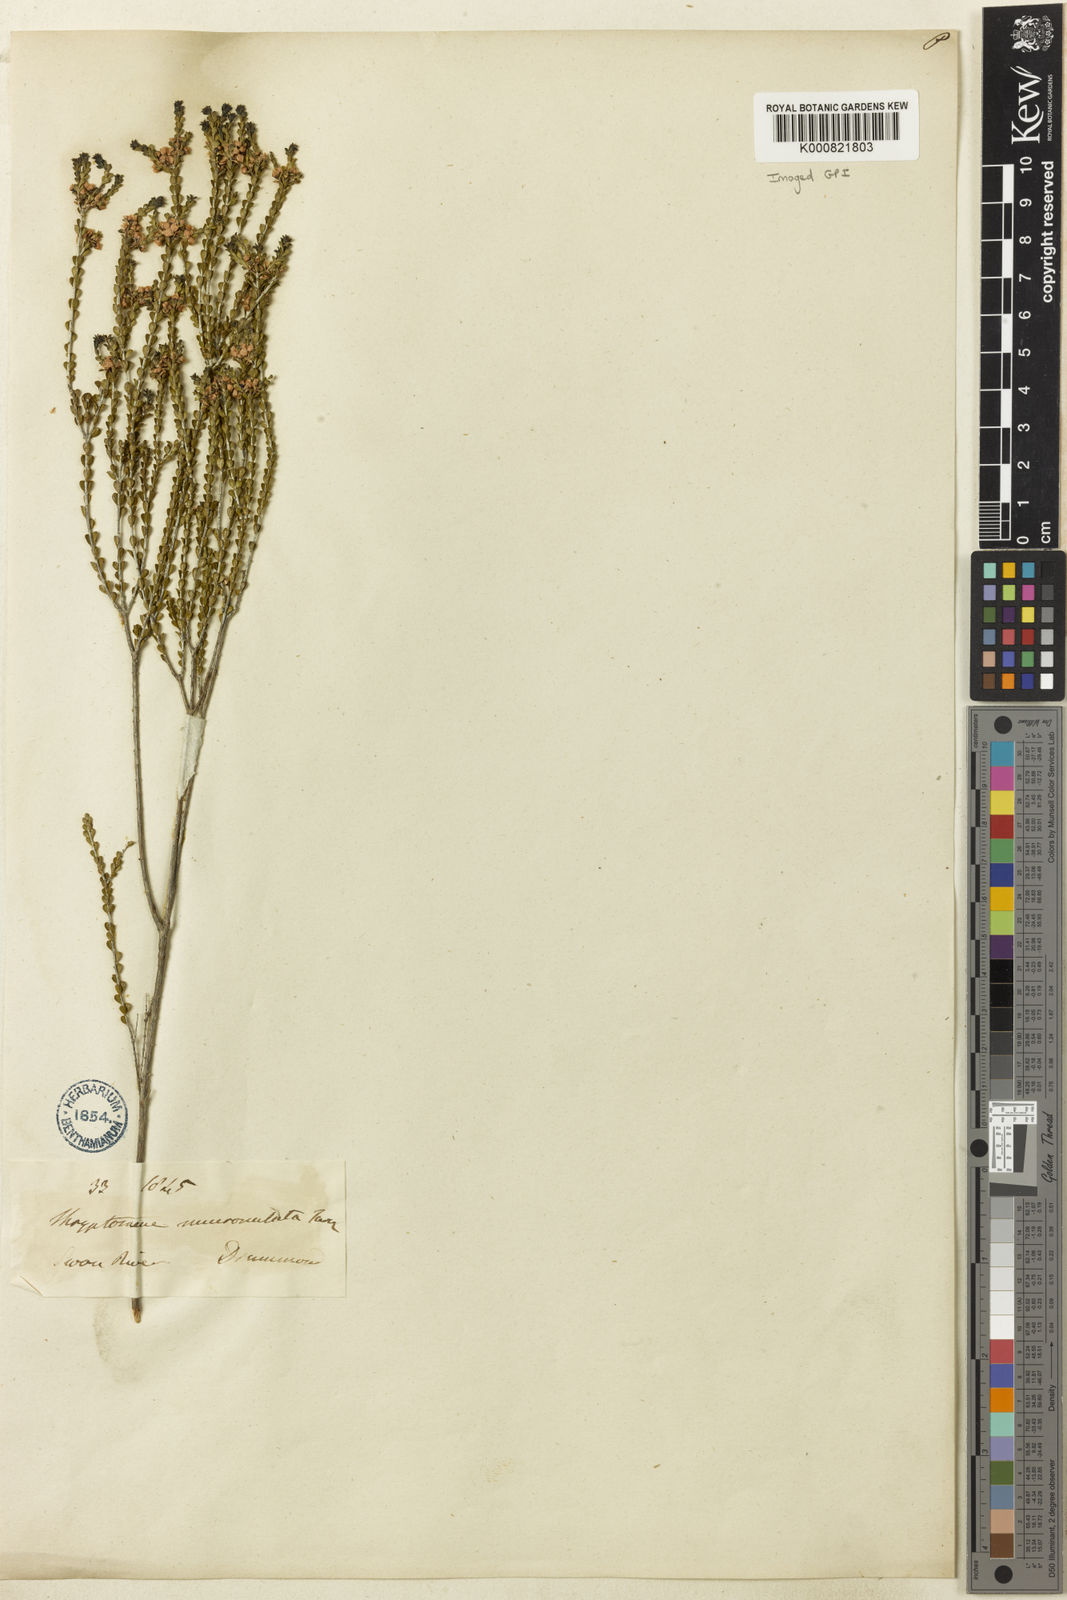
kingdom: Plantae
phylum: Tracheophyta
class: Magnoliopsida
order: Myrtales
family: Myrtaceae
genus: Thryptomene
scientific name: Thryptomene mucronulata
